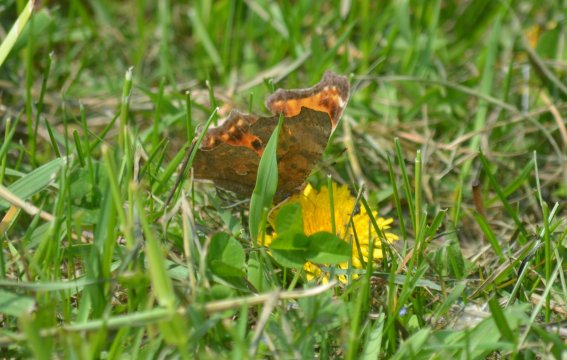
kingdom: Animalia
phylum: Arthropoda
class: Insecta
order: Lepidoptera
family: Nymphalidae
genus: Polygonia
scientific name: Polygonia comma
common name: Eastern Comma
